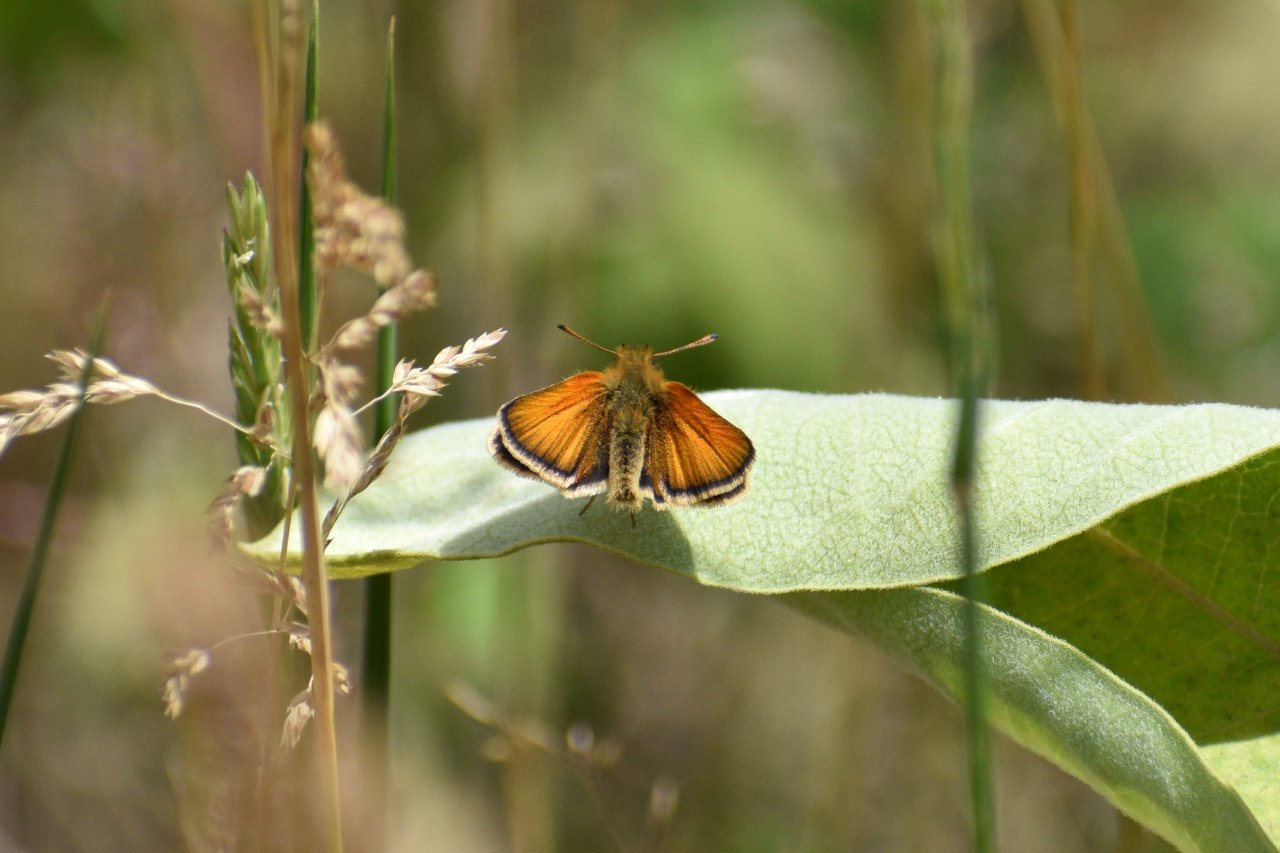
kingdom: Animalia
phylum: Arthropoda
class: Insecta
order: Lepidoptera
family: Hesperiidae
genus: Thymelicus
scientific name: Thymelicus lineola
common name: European Skipper
